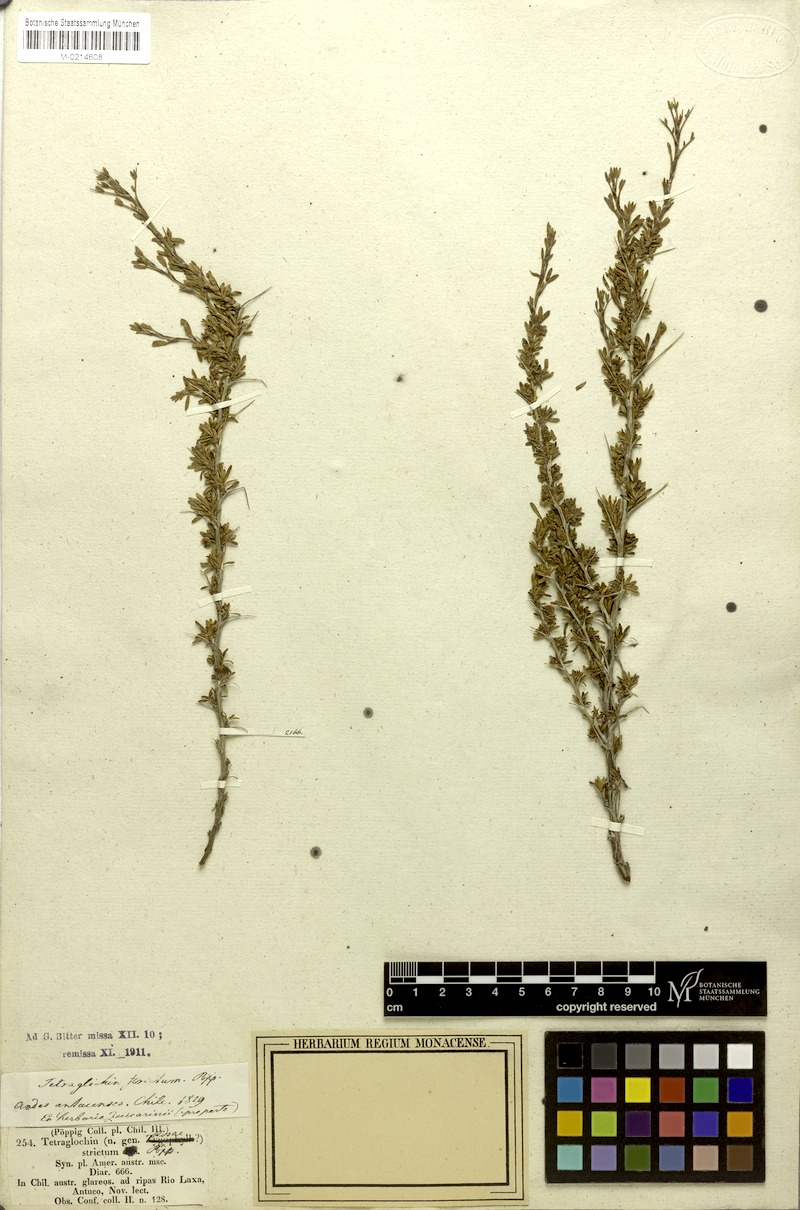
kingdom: Plantae
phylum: Tracheophyta
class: Magnoliopsida
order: Rosales
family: Rosaceae
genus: Margyricarpus
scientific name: Margyricarpus alatus
